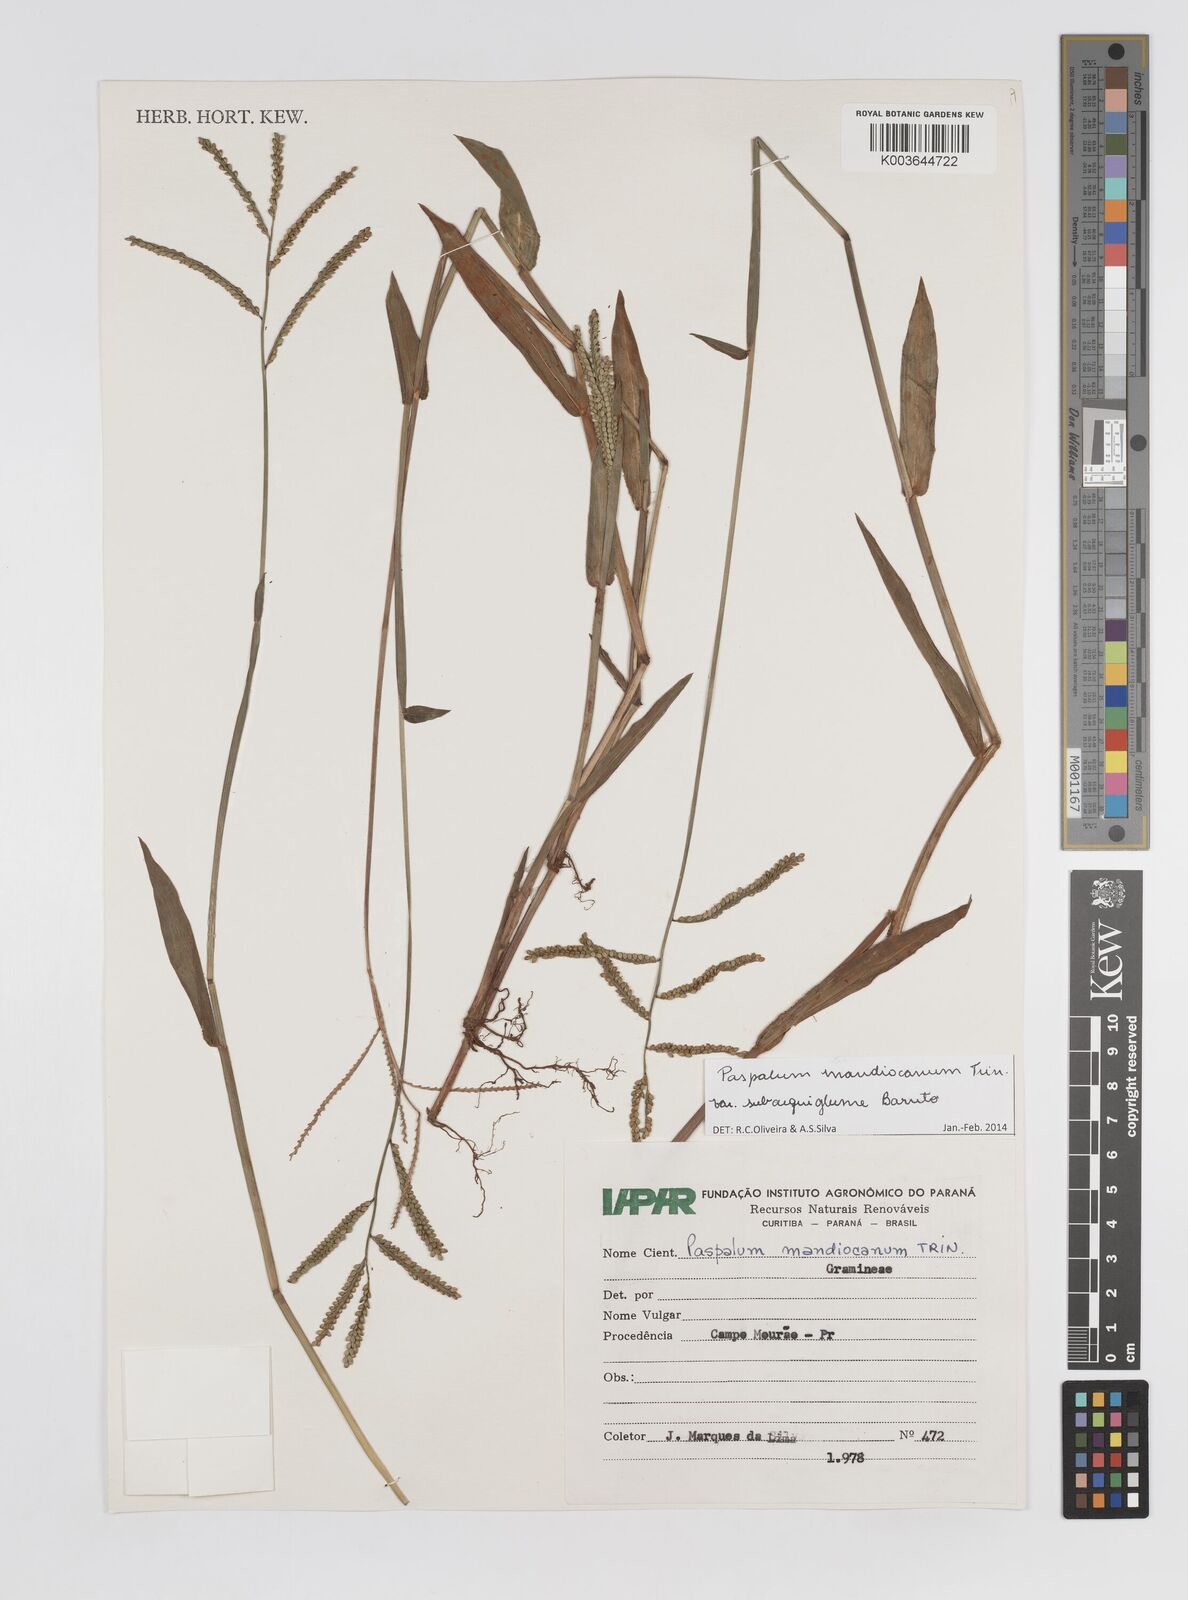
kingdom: Plantae
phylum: Tracheophyta
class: Liliopsida
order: Poales
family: Poaceae
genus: Paspalum
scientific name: Paspalum mandiocanum
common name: Paspalum
